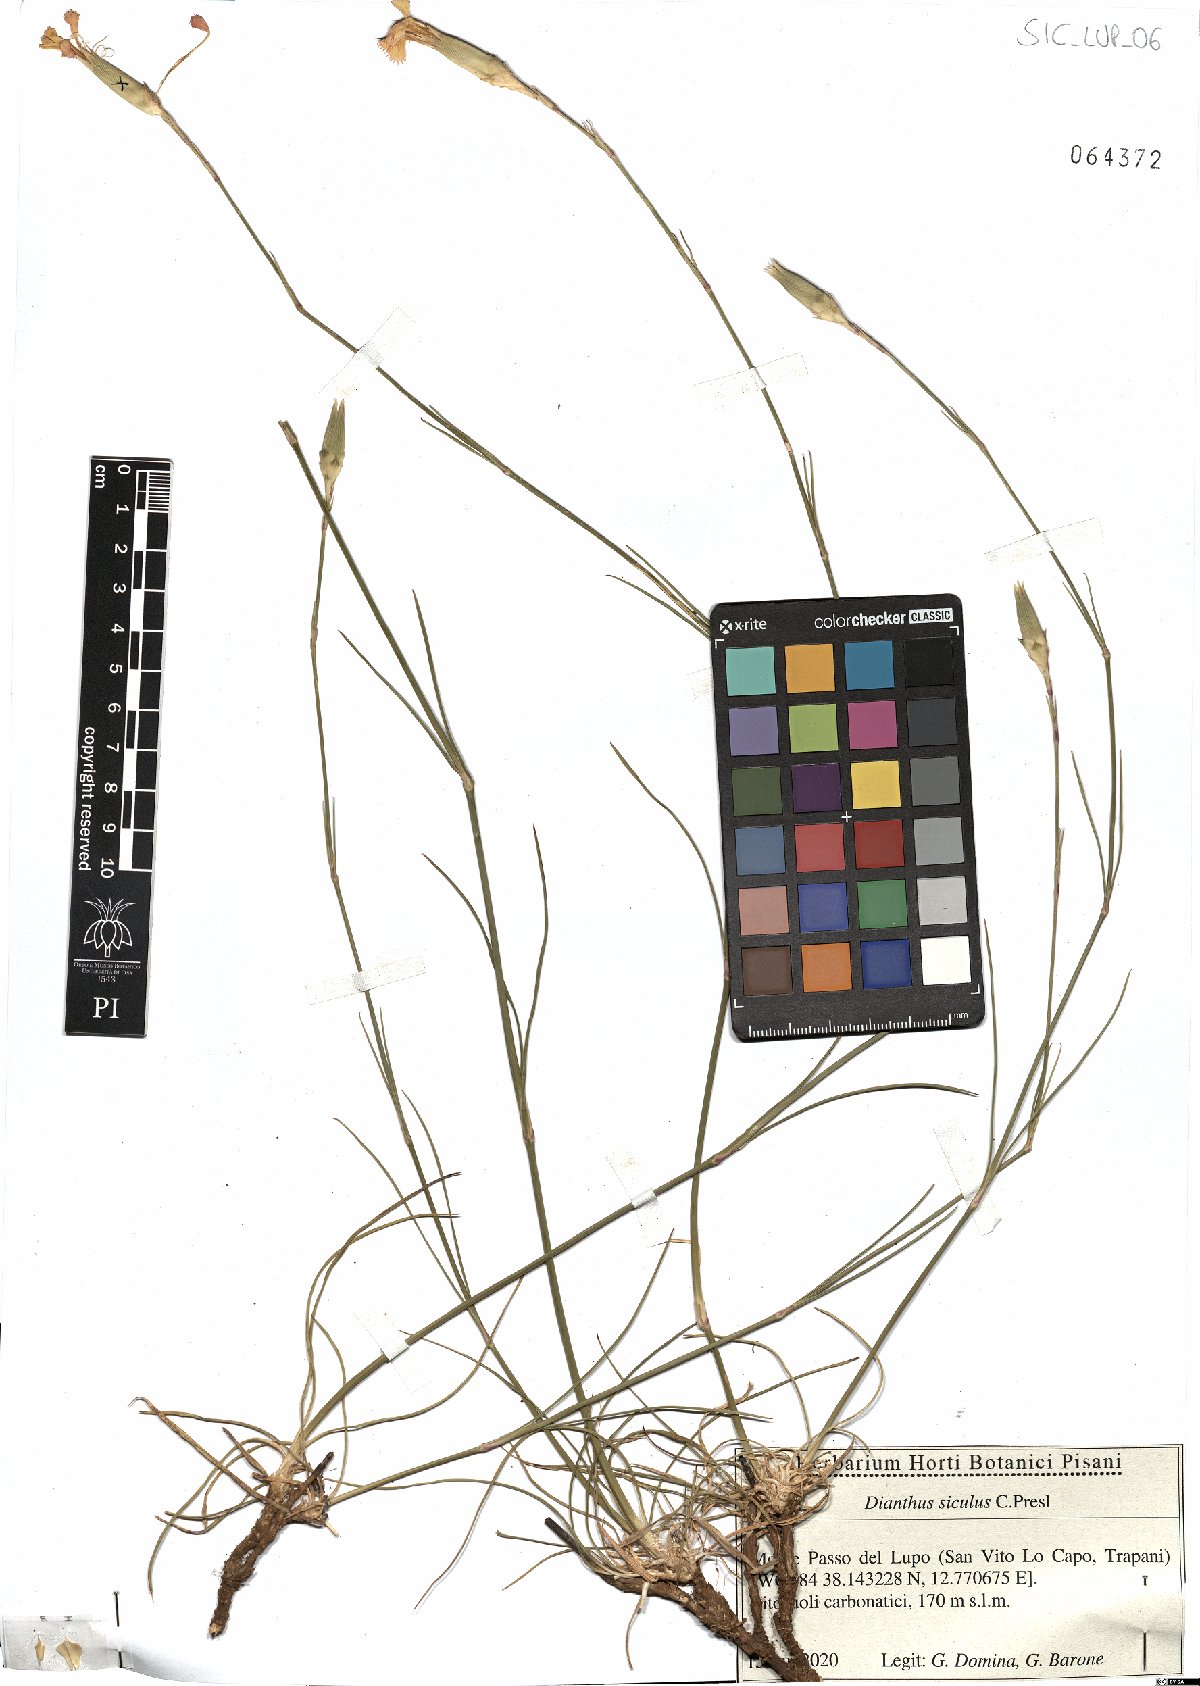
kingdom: Plantae
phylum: Tracheophyta
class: Magnoliopsida
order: Caryophyllales
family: Caryophyllaceae
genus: Dianthus
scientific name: Dianthus siculus
